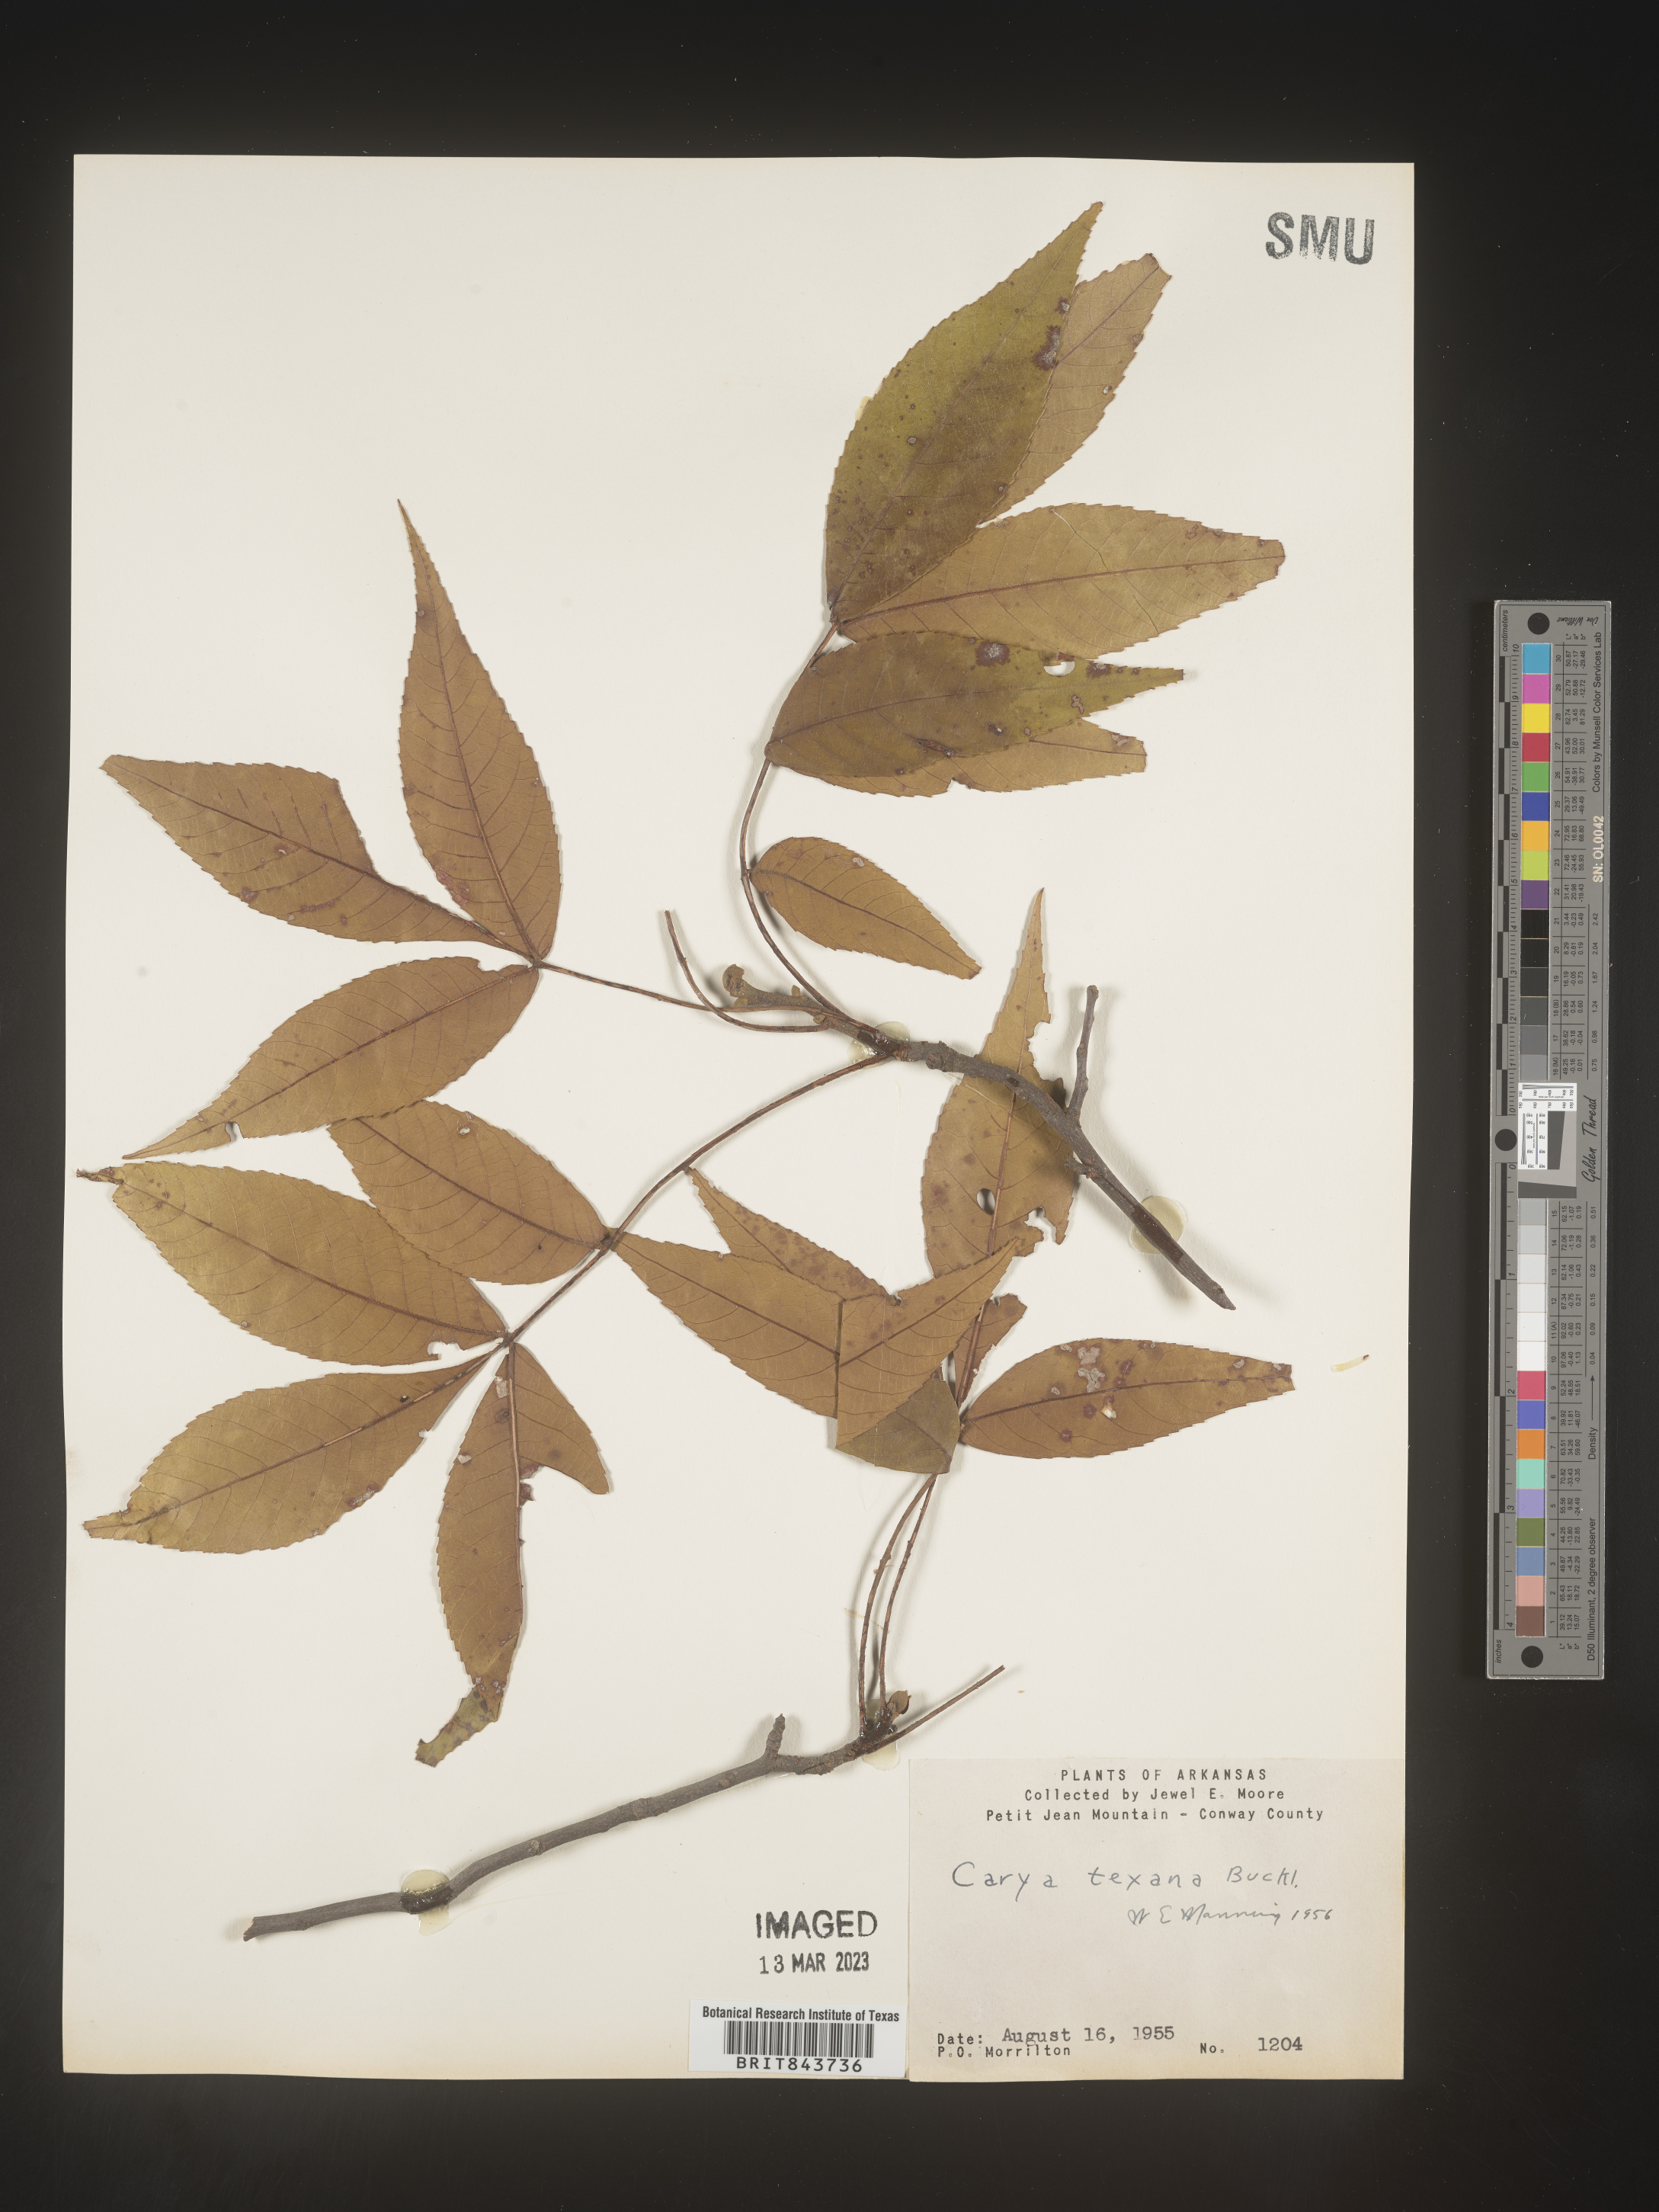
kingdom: Plantae
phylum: Tracheophyta
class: Magnoliopsida
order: Fagales
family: Juglandaceae
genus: Carya
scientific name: Carya texana
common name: Black hickory
